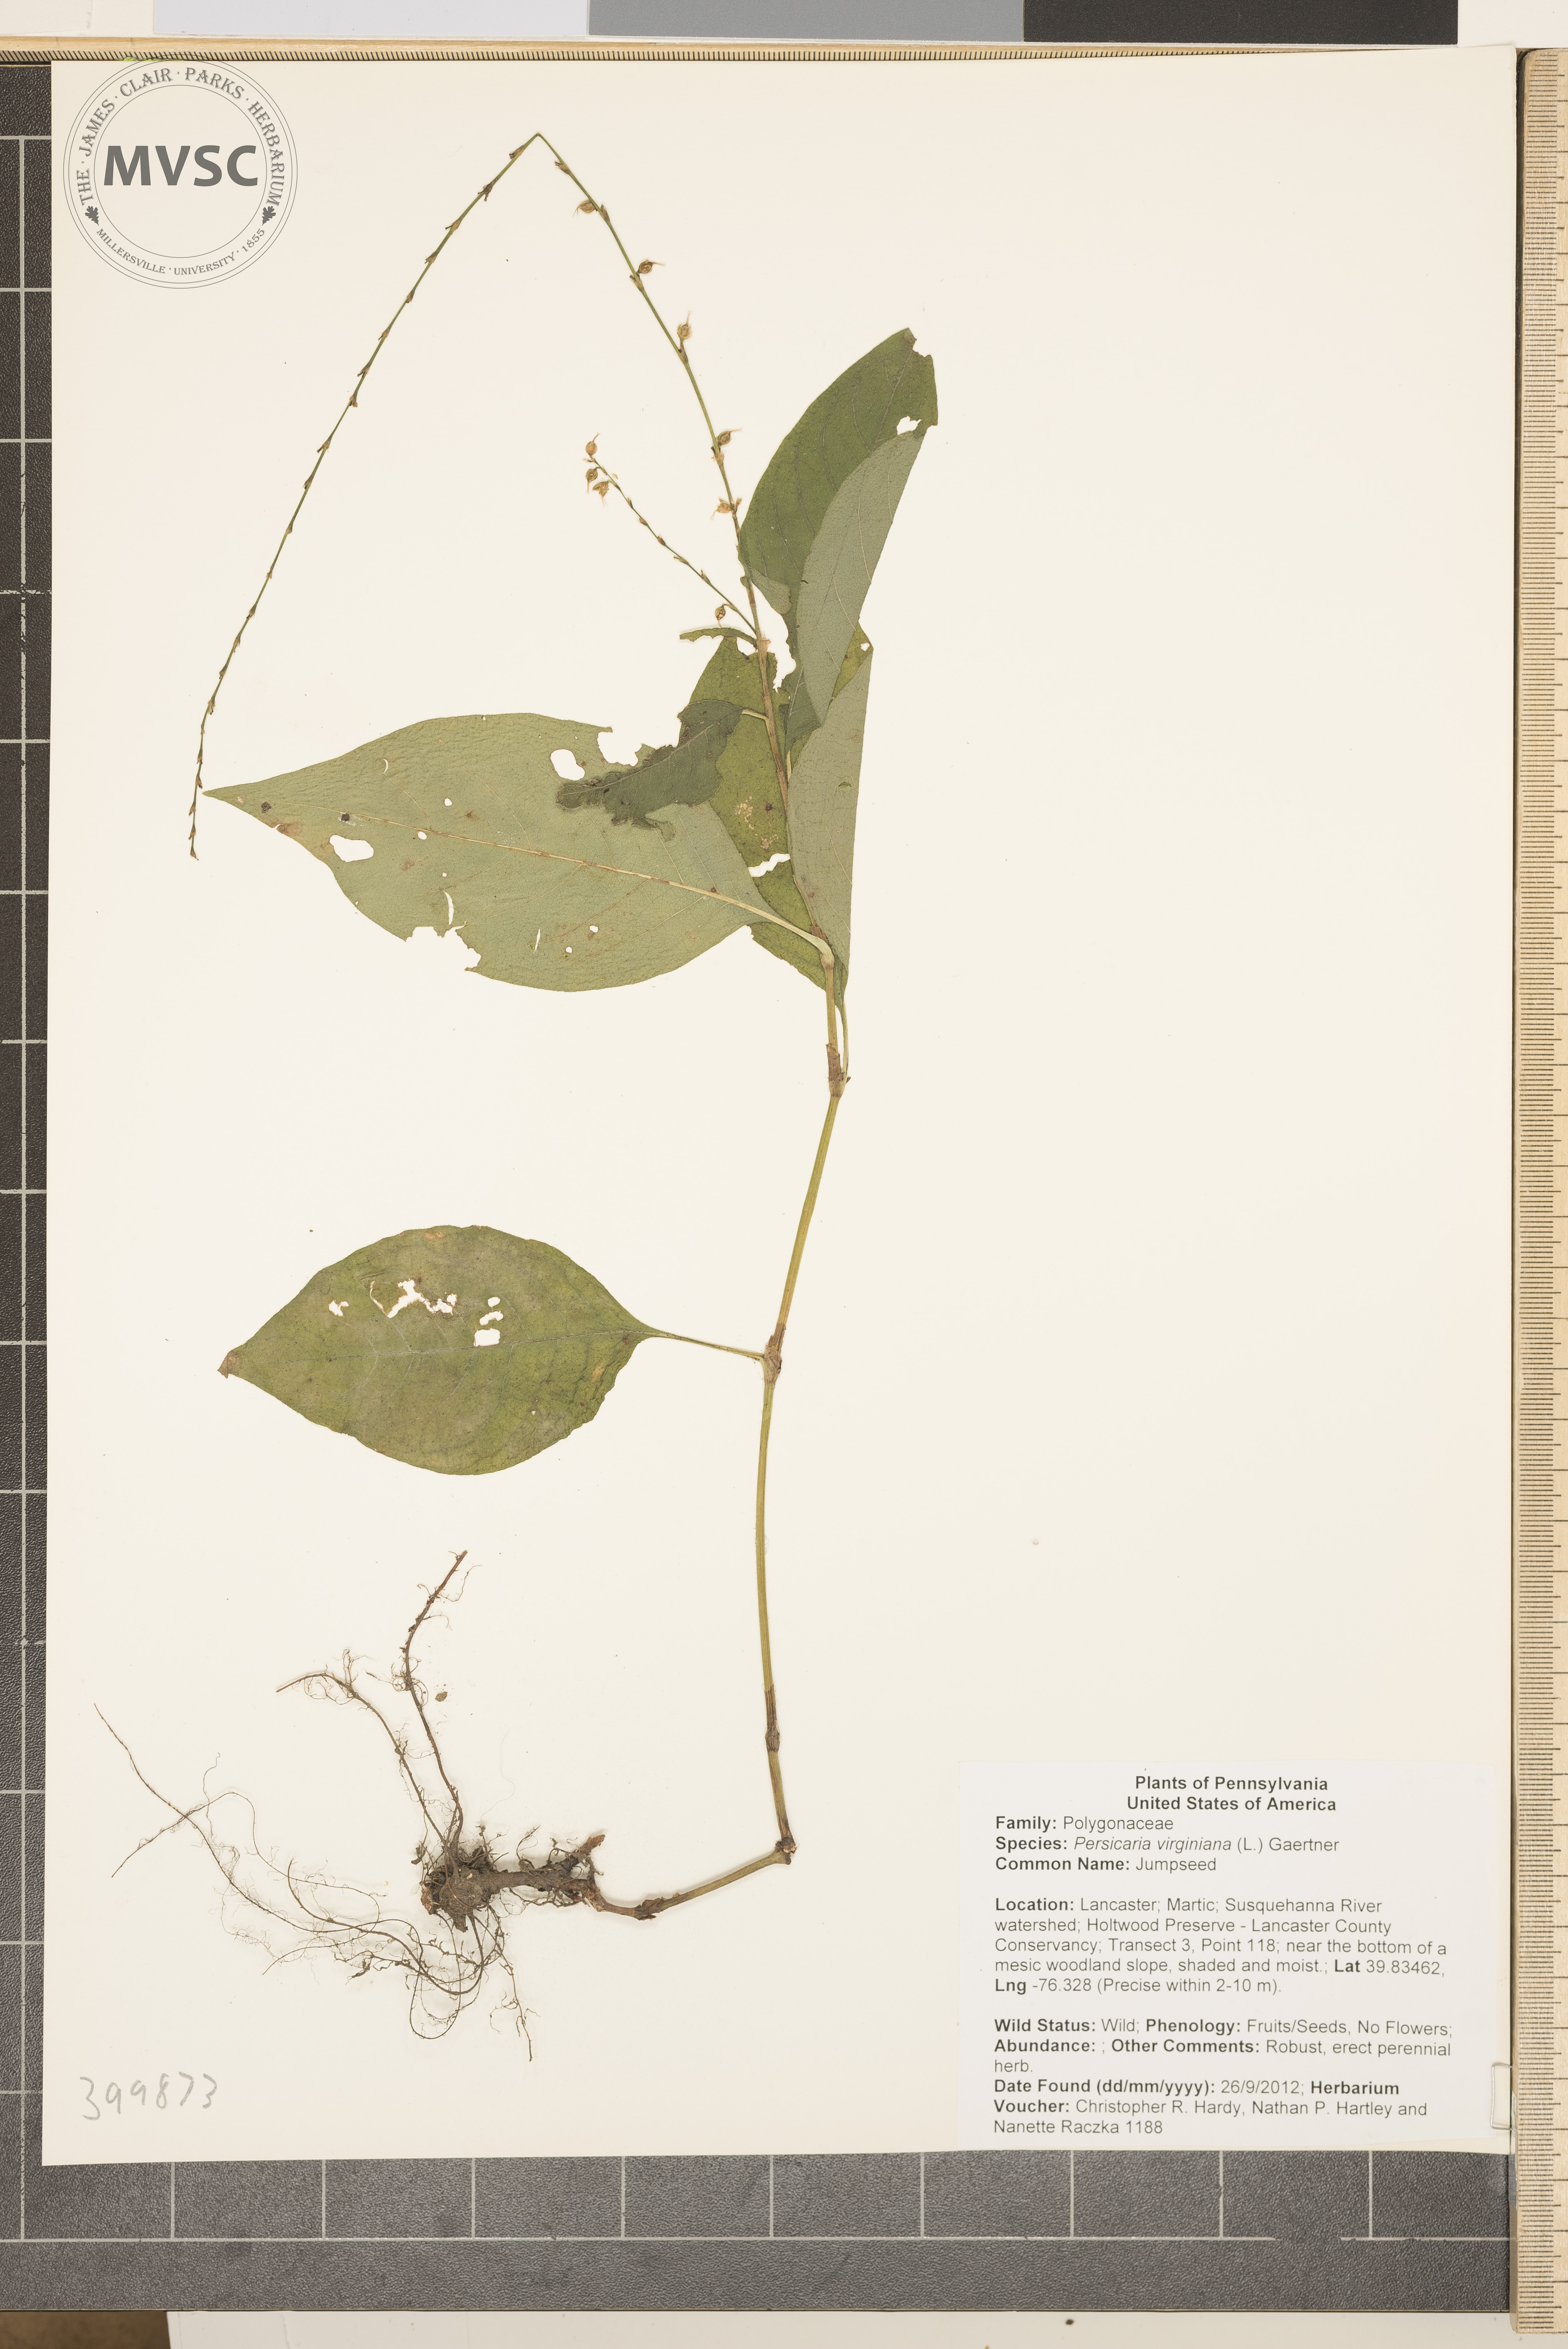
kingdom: Plantae
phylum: Tracheophyta
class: Magnoliopsida
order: Caryophyllales
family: Polygonaceae
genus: Persicaria
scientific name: Persicaria virginiana
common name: Jumpseed
